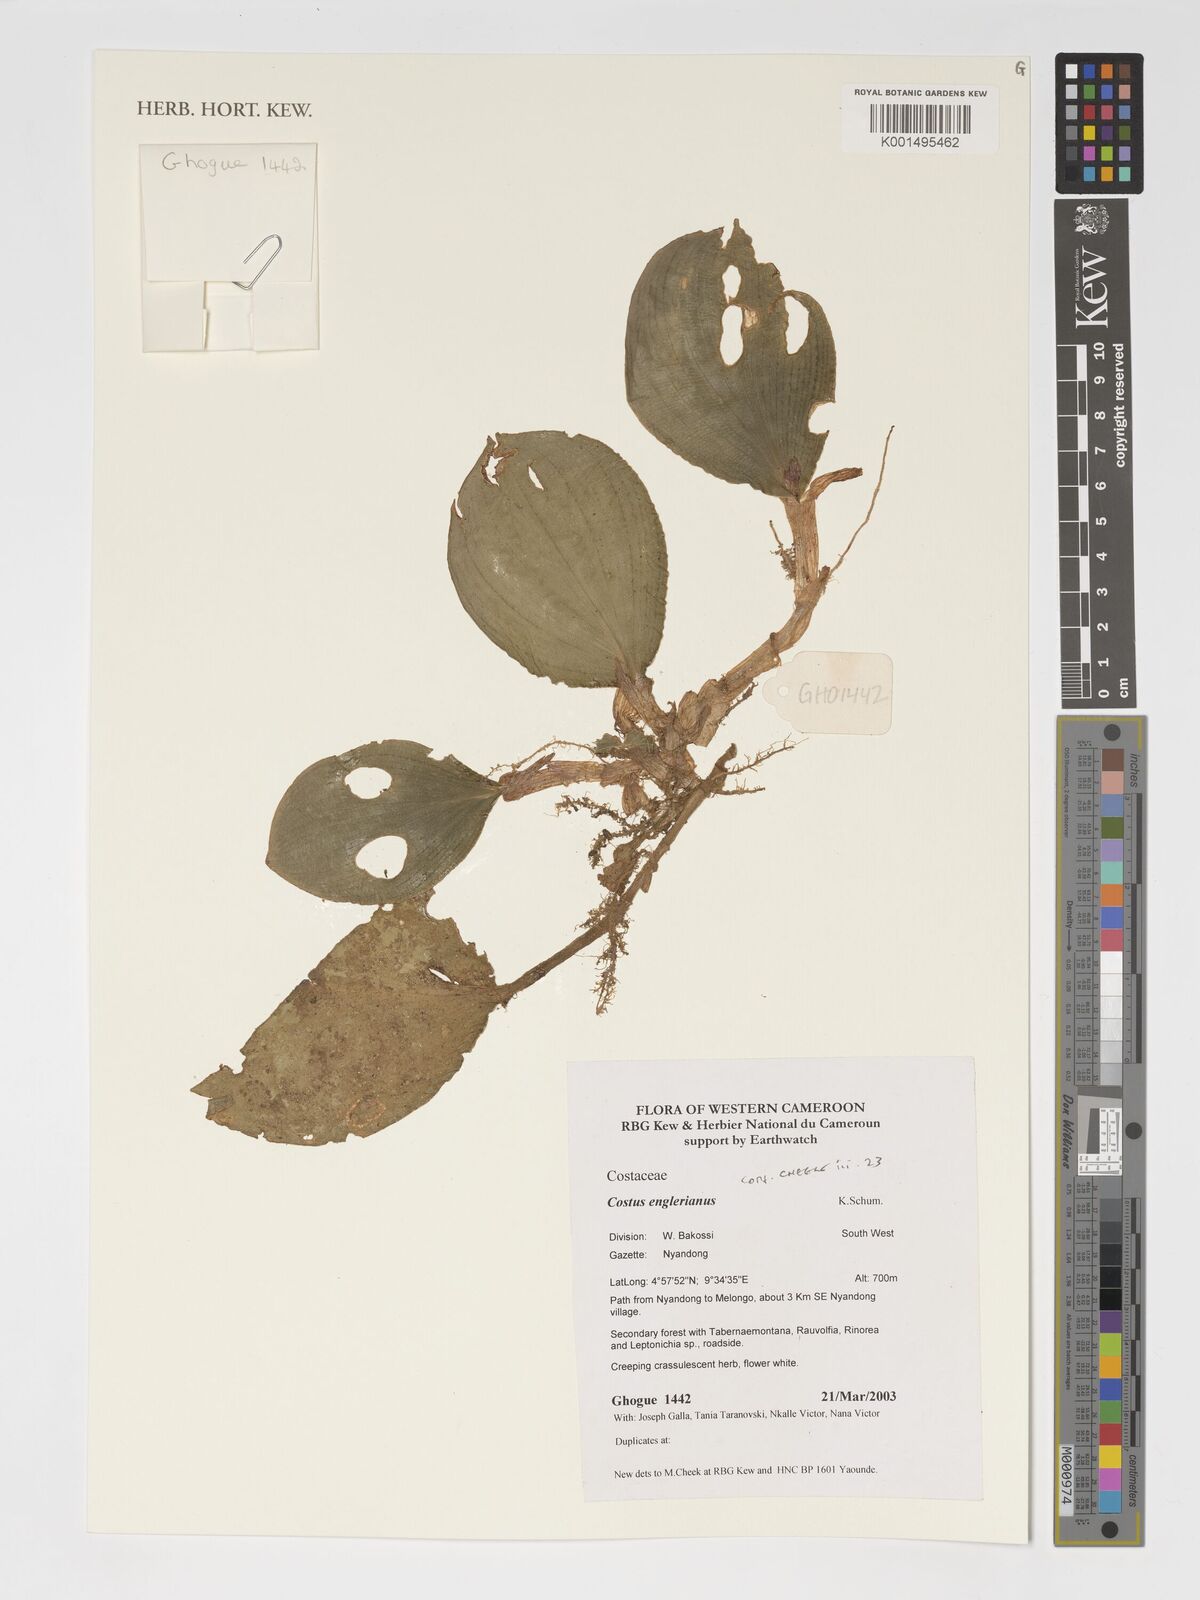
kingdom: Plantae
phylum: Tracheophyta
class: Liliopsida
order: Zingiberales
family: Costaceae
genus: Paracostus
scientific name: Paracostus englerianus
